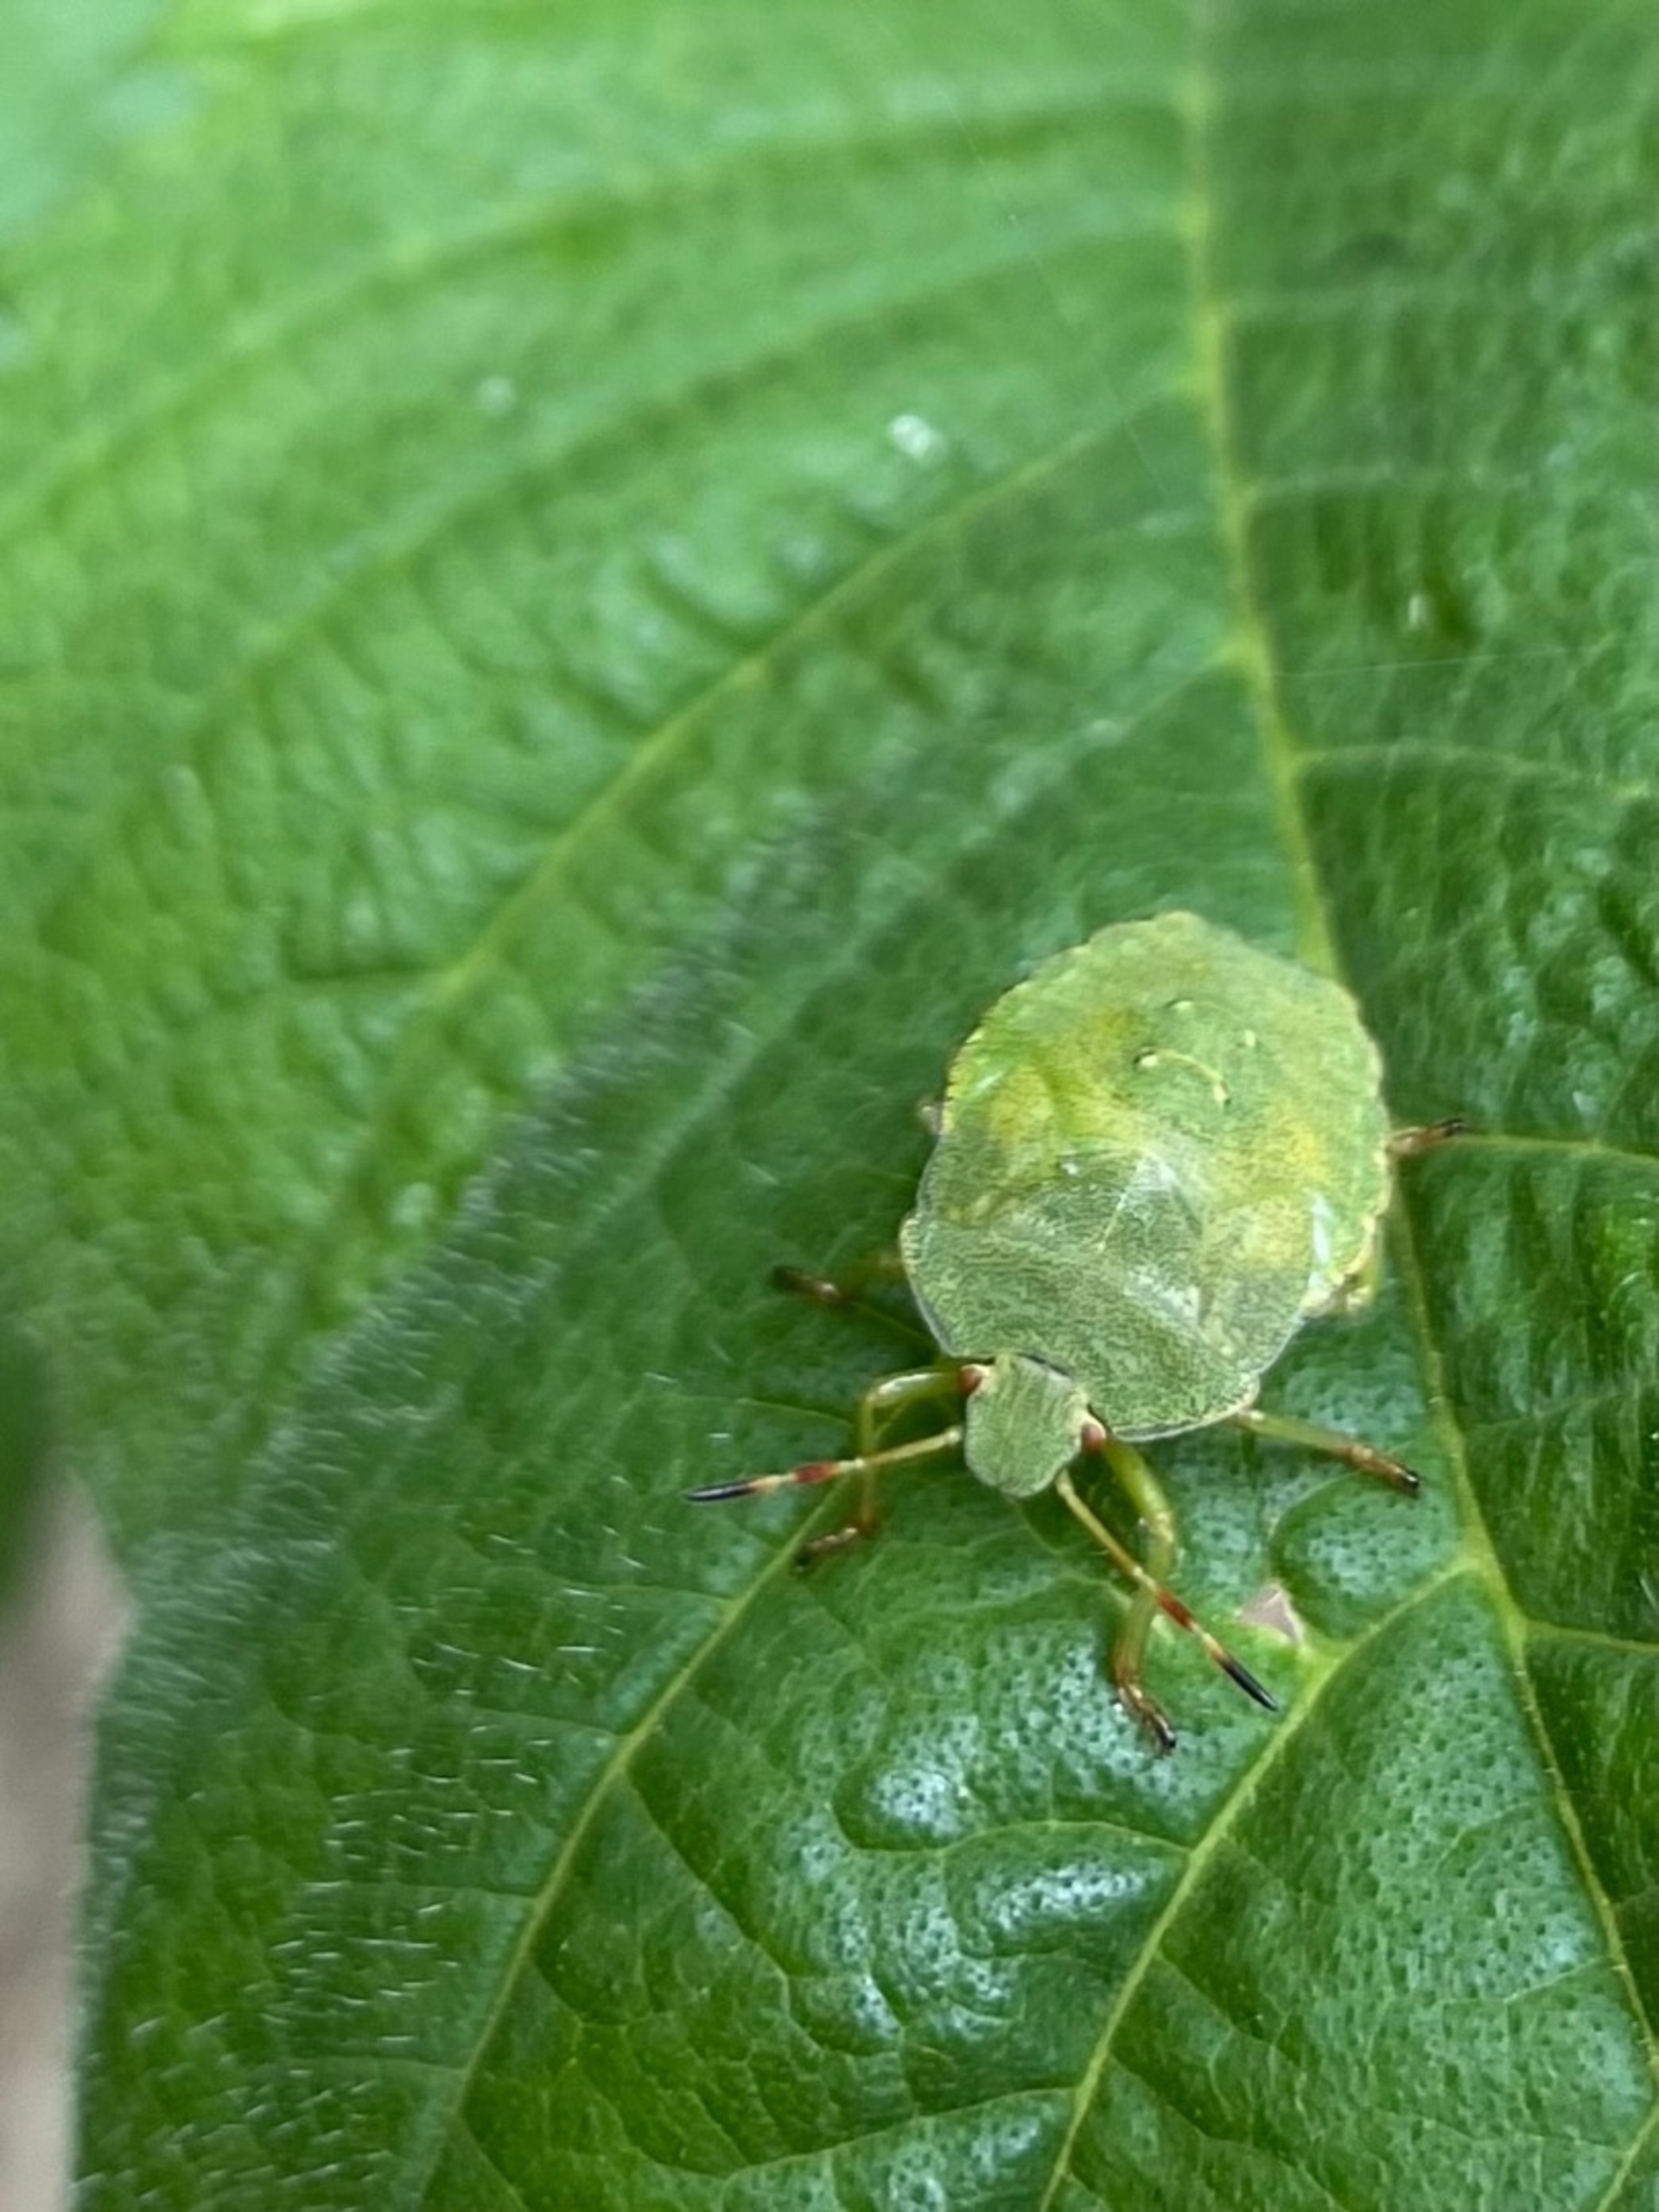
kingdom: Animalia
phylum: Arthropoda
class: Insecta
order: Hemiptera
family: Pentatomidae
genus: Palomena
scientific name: Palomena prasina
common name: Grøn bredtæge
